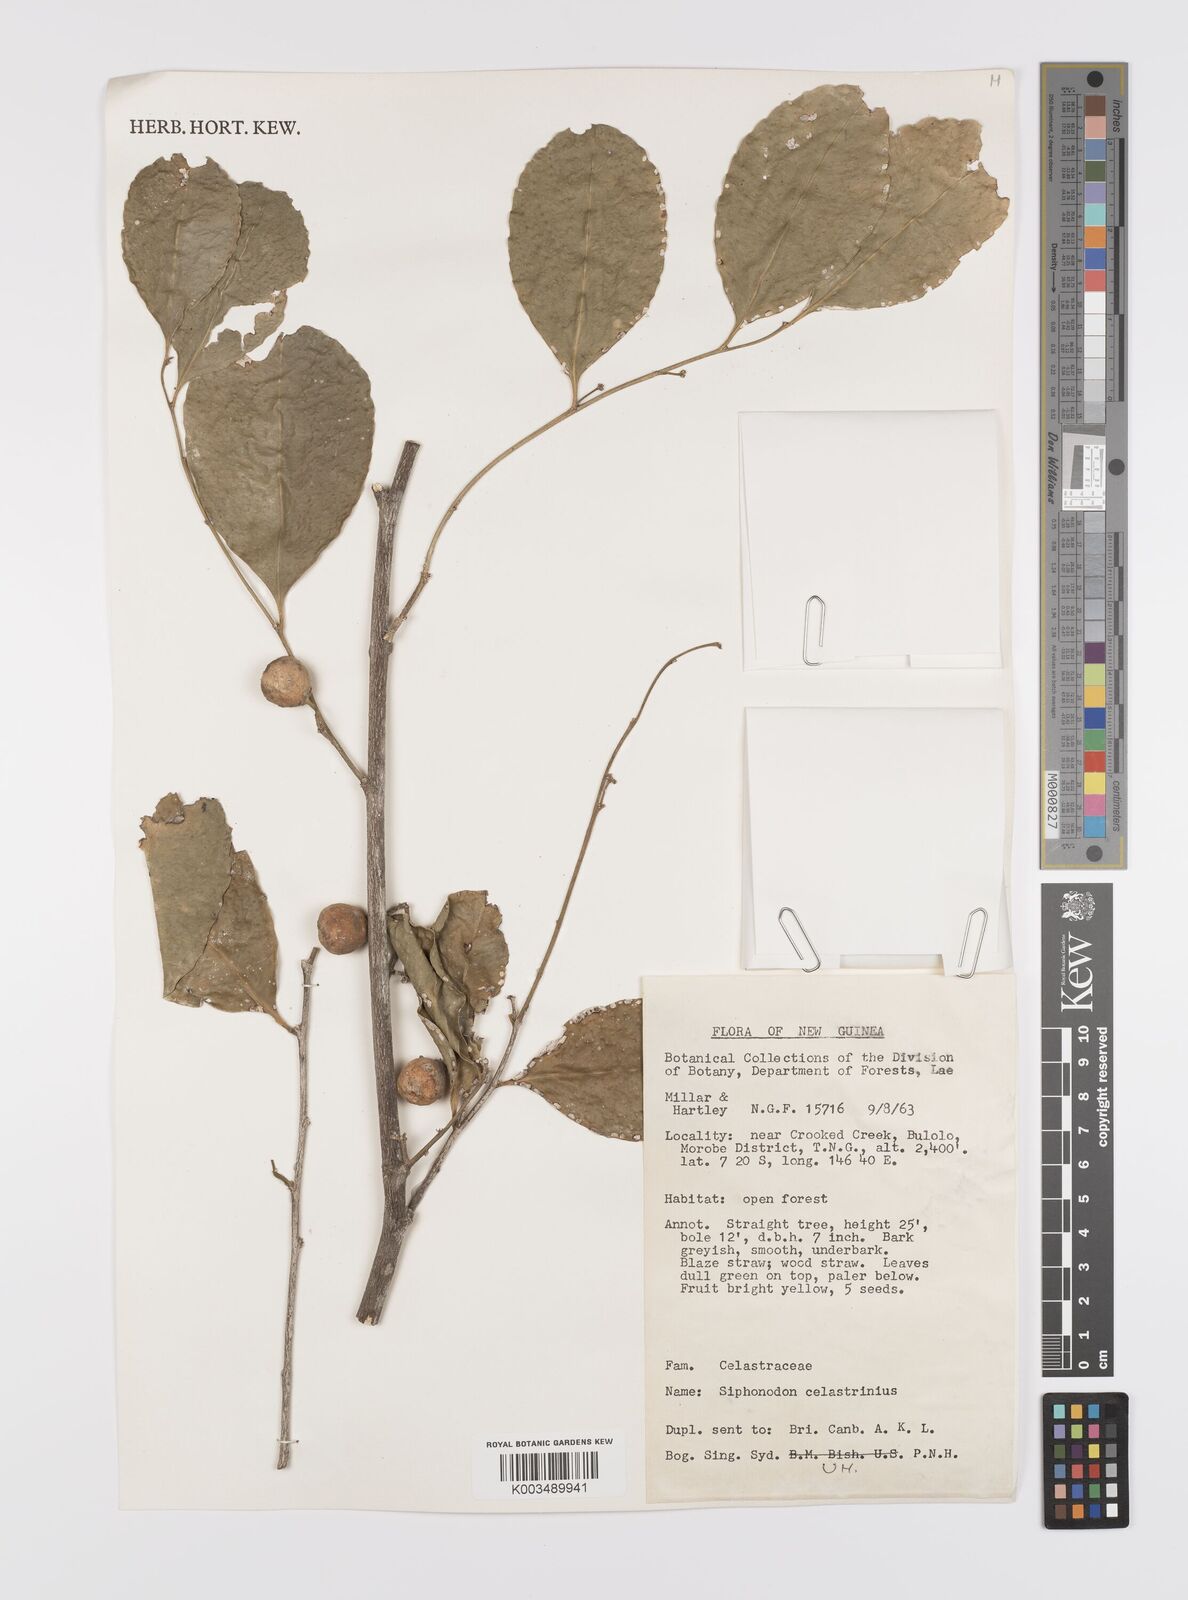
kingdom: Plantae
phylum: Tracheophyta
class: Magnoliopsida
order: Celastrales
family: Celastraceae
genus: Siphonodon
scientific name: Siphonodon celastrineus
